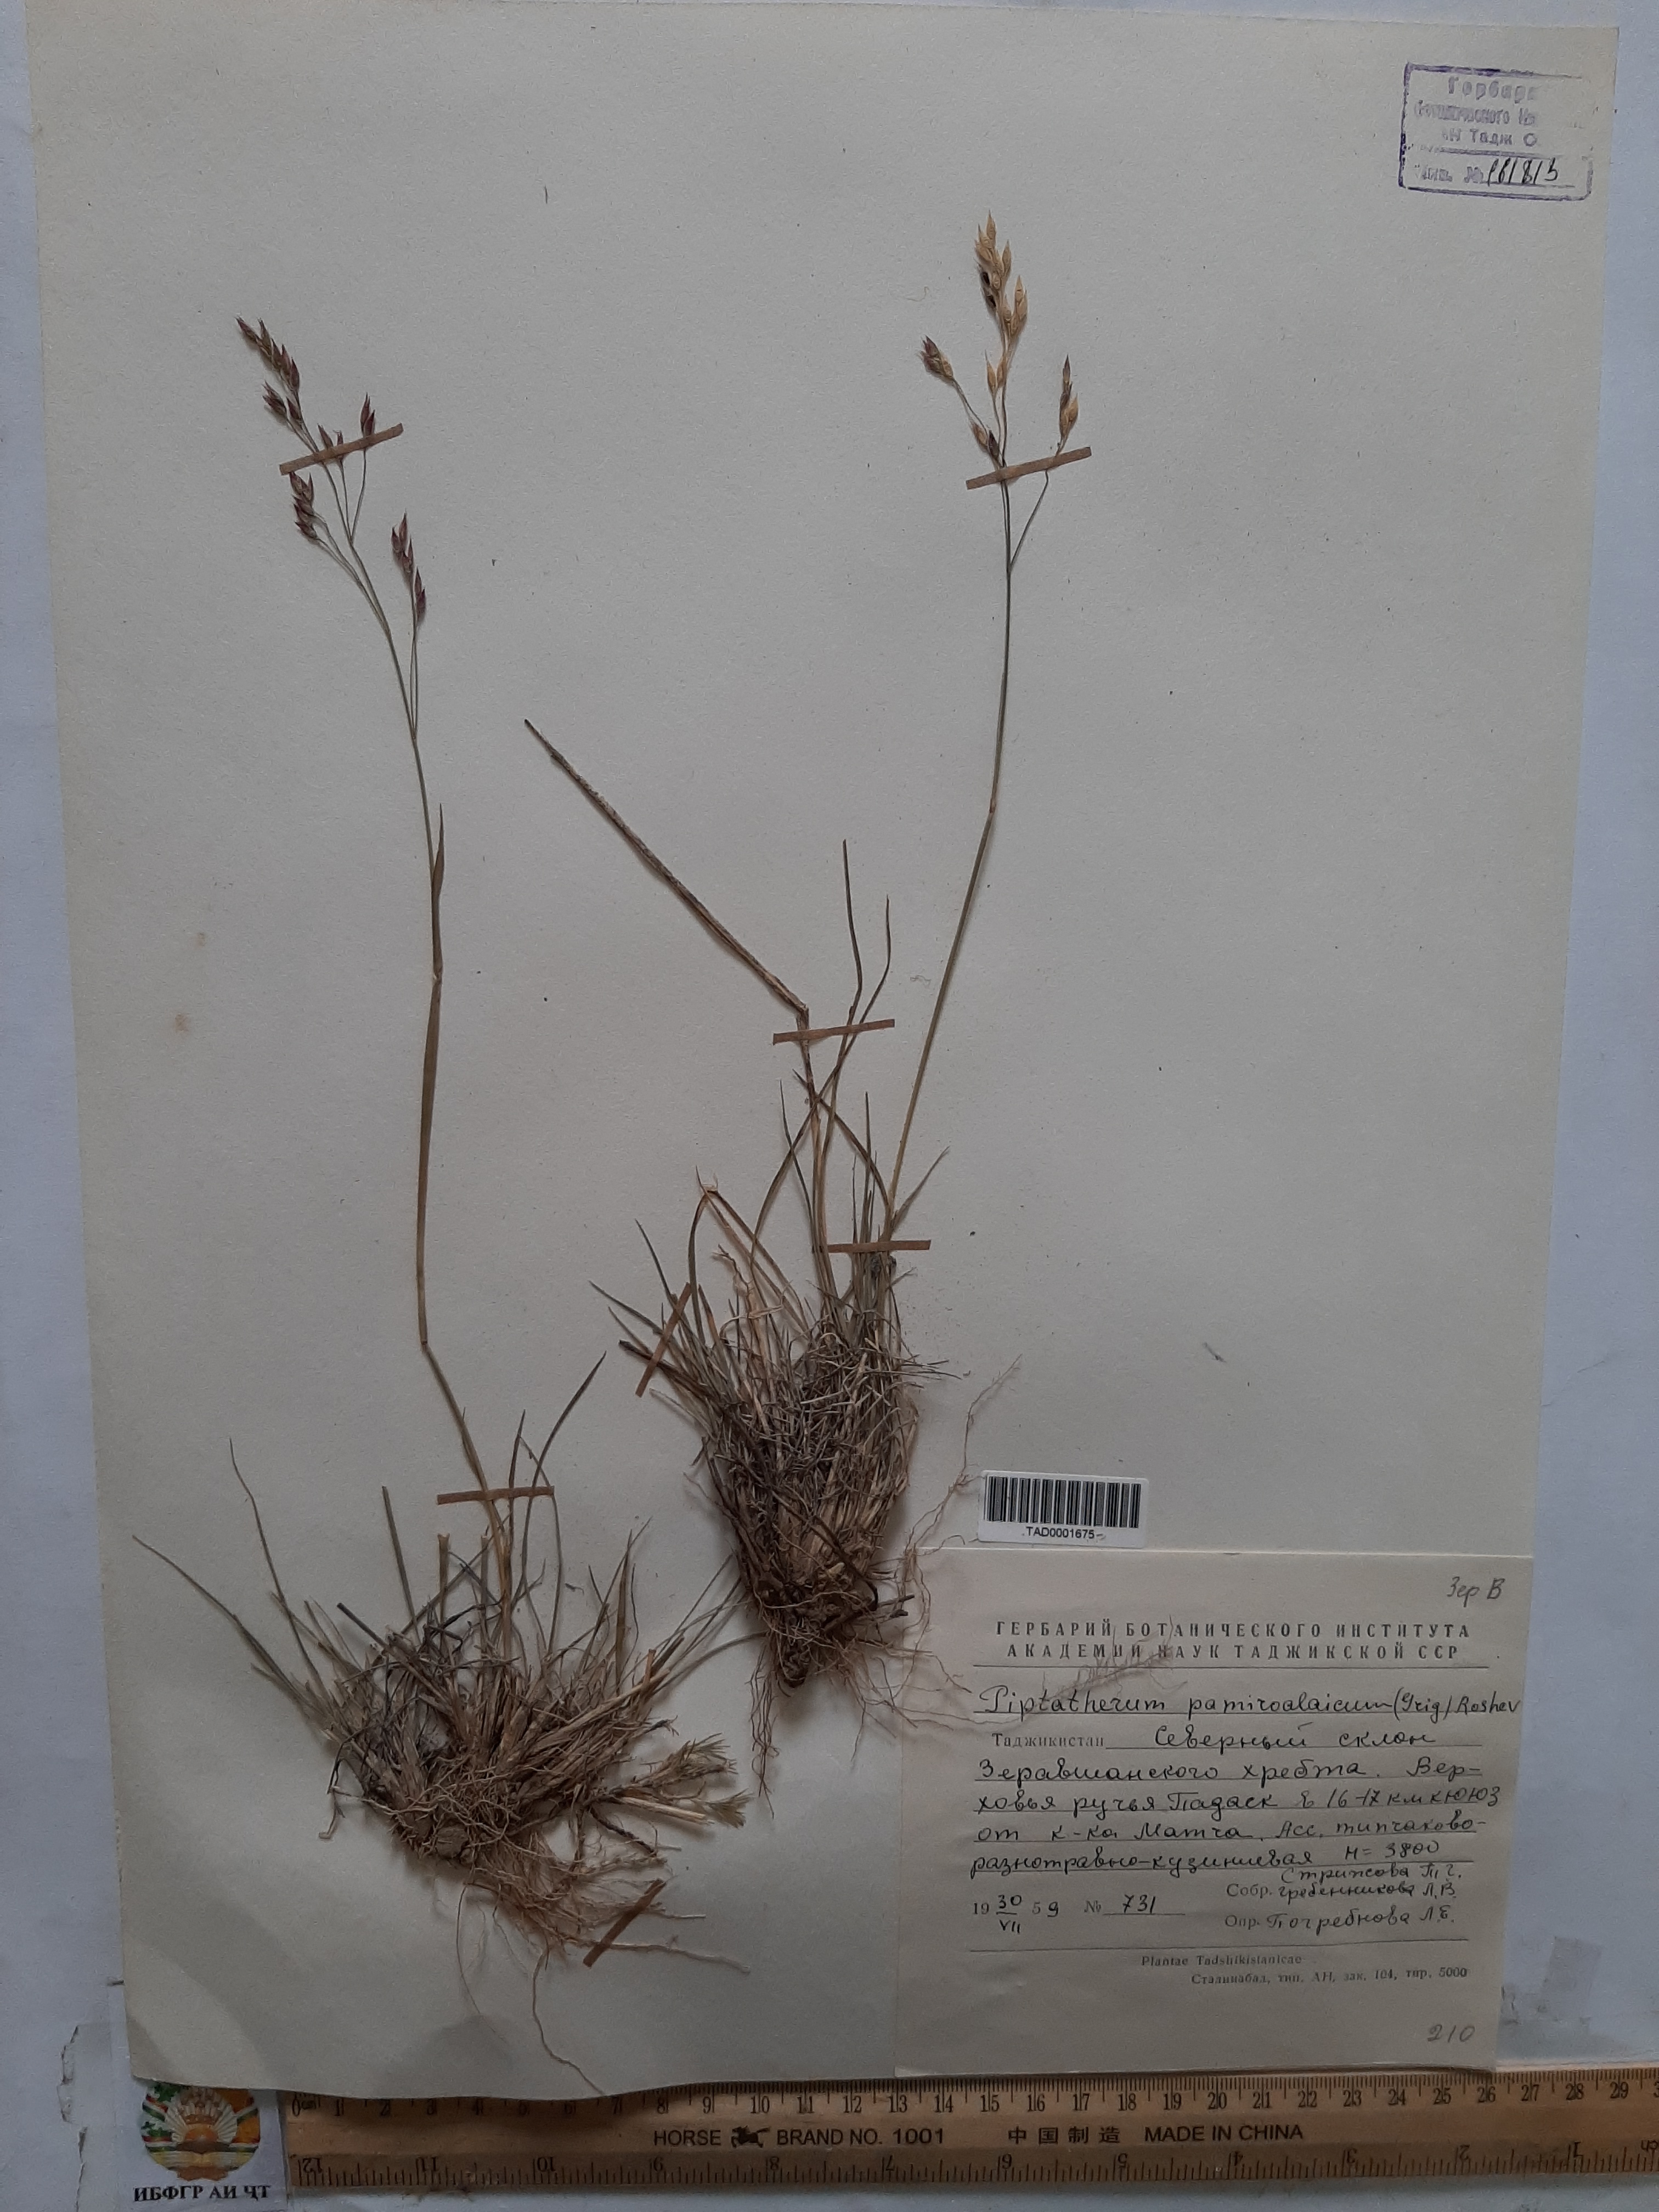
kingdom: Plantae
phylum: Tracheophyta
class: Liliopsida
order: Poales
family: Poaceae
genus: Piptatherum
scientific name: Piptatherum latifolium
